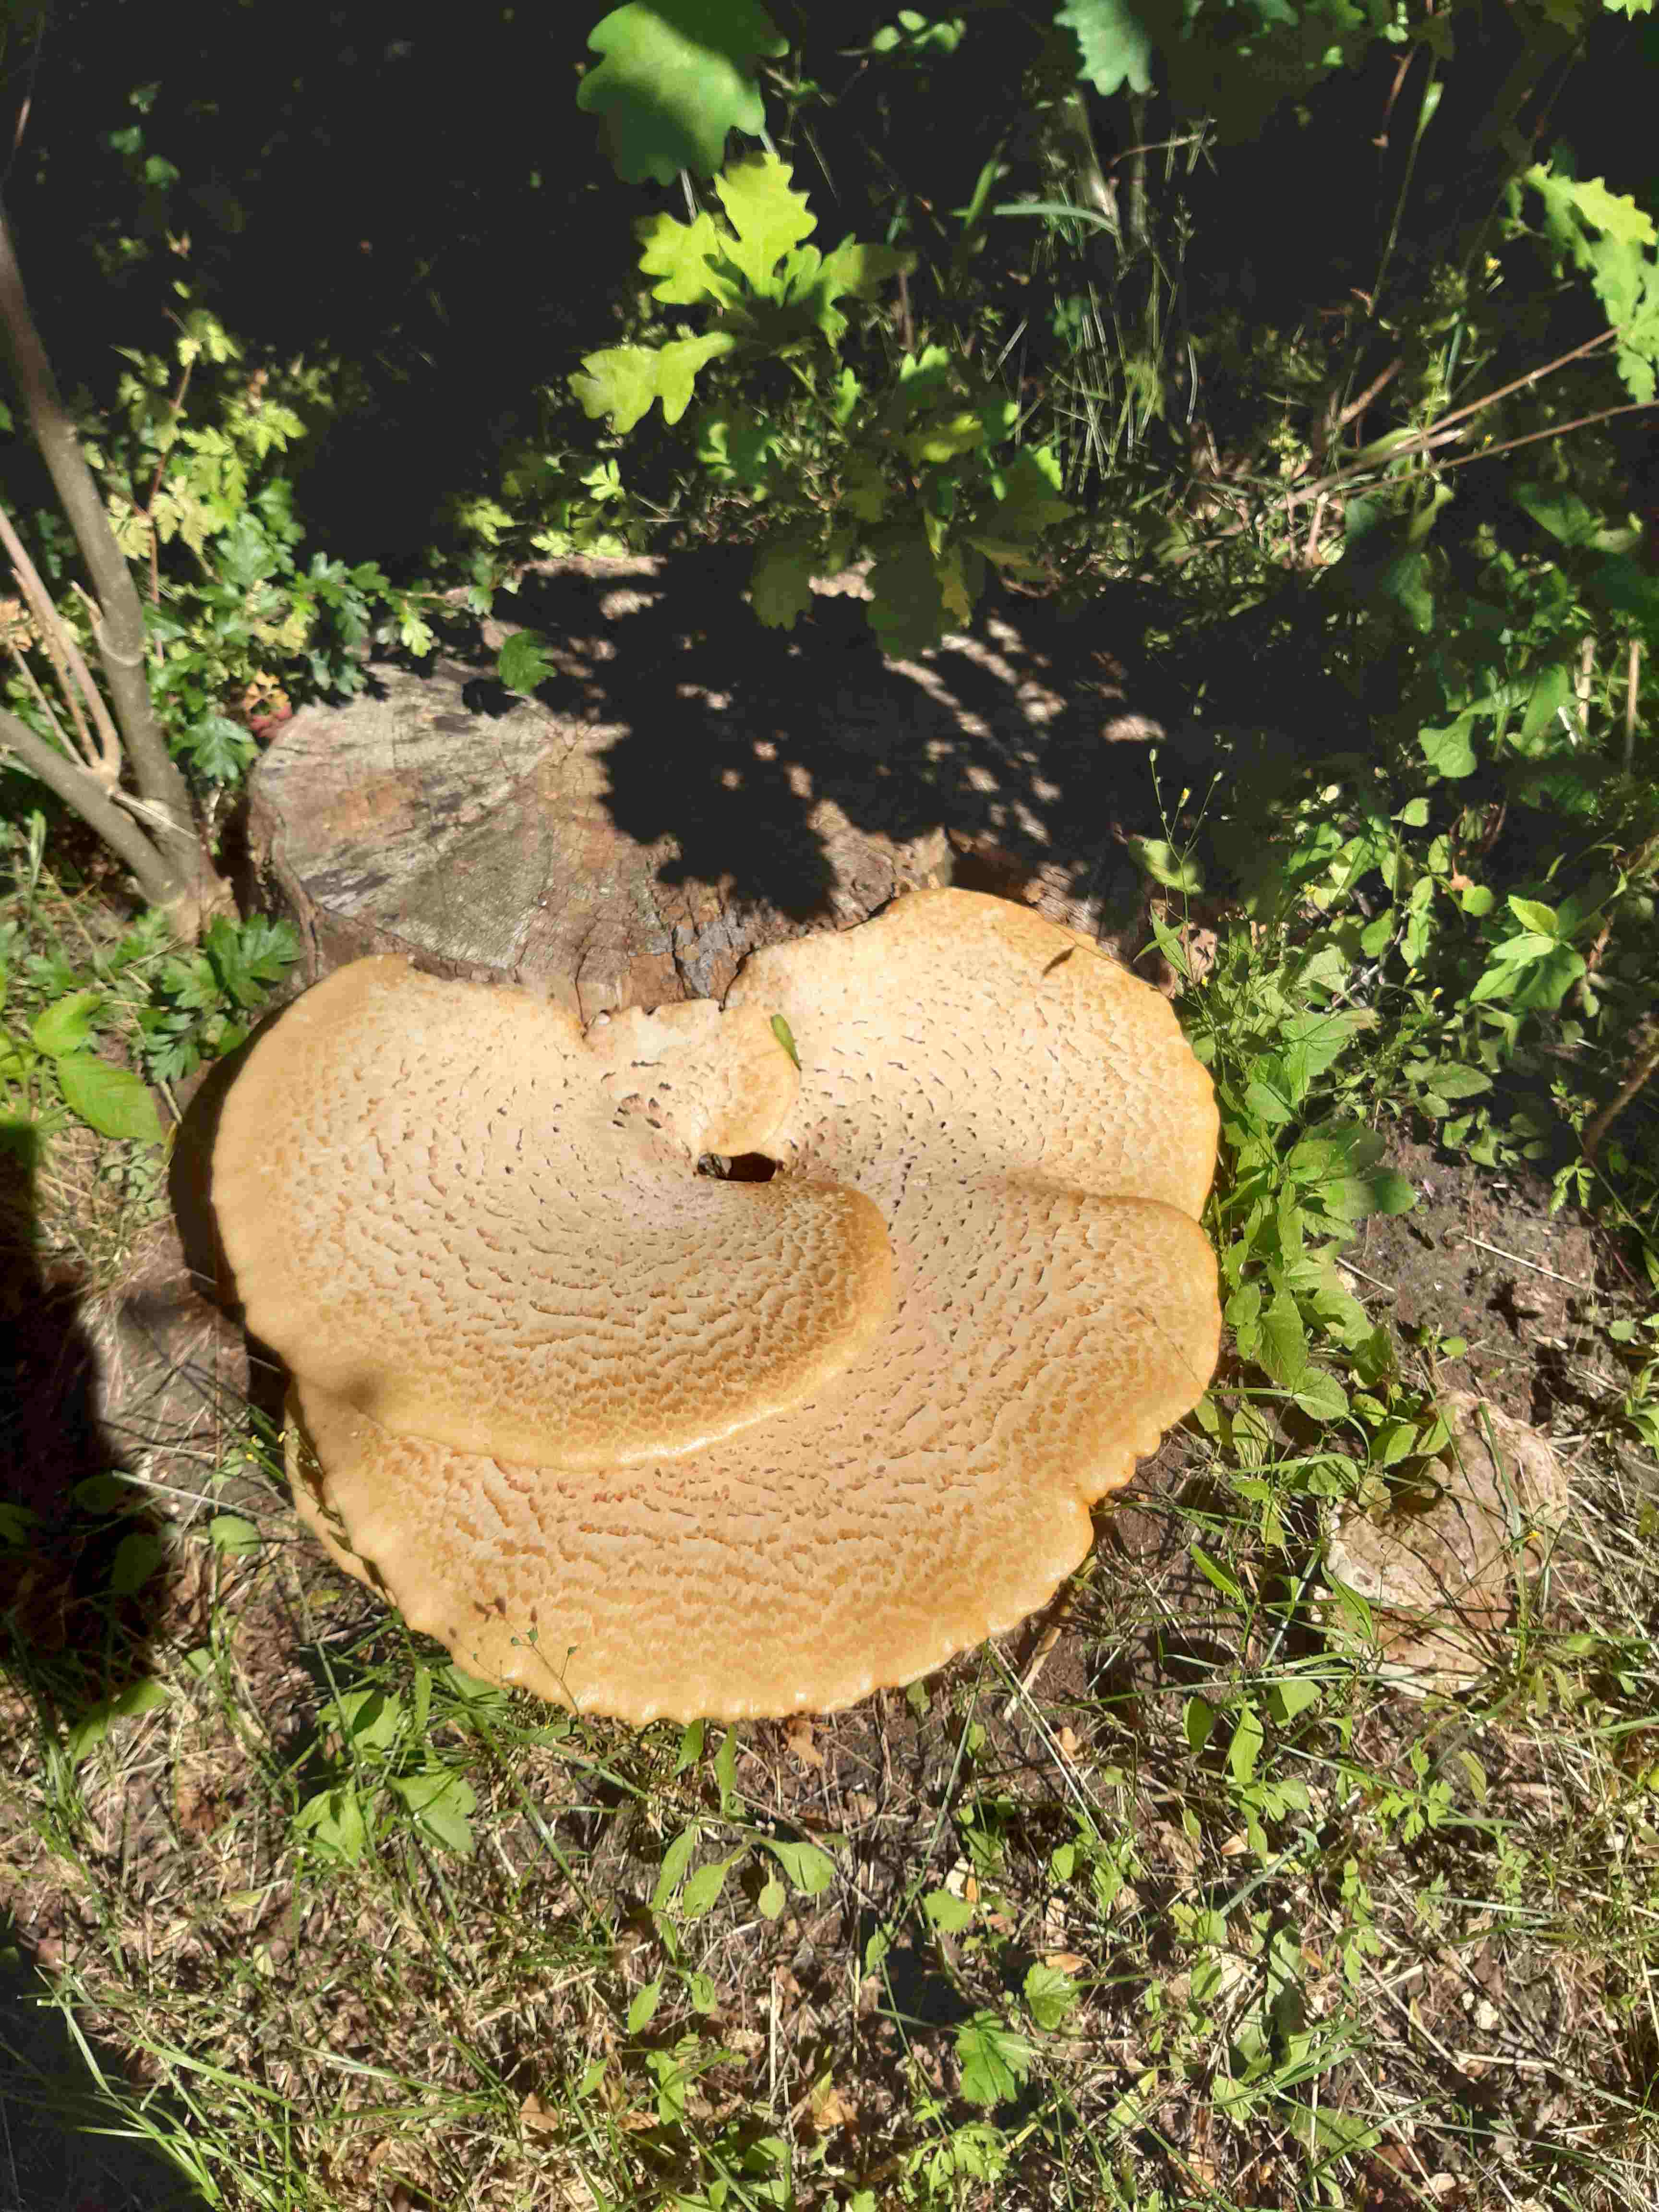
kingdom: Fungi
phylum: Basidiomycota
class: Agaricomycetes
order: Polyporales
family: Polyporaceae
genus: Cerioporus
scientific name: Cerioporus squamosus
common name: skællet stilkporesvamp
